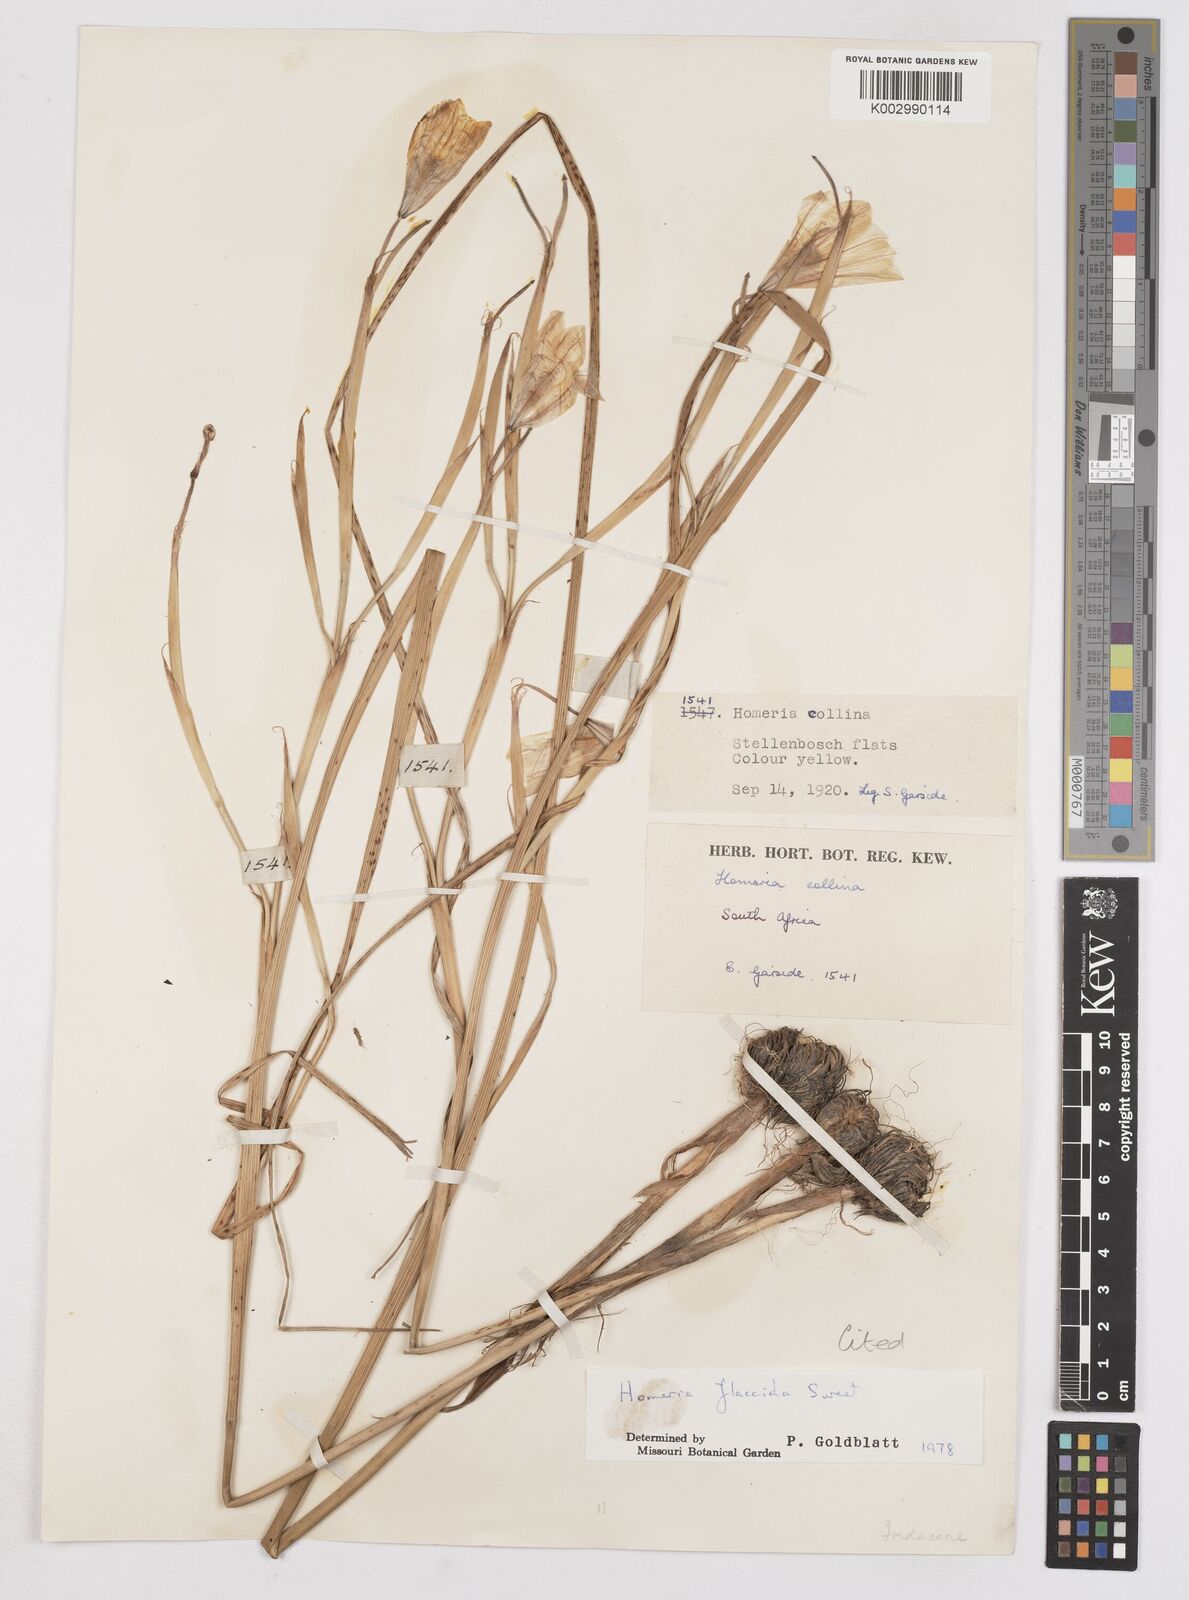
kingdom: Plantae
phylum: Tracheophyta
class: Liliopsida
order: Asparagales
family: Iridaceae
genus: Moraea
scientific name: Moraea flaccida
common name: One-leaf cape-tulip
